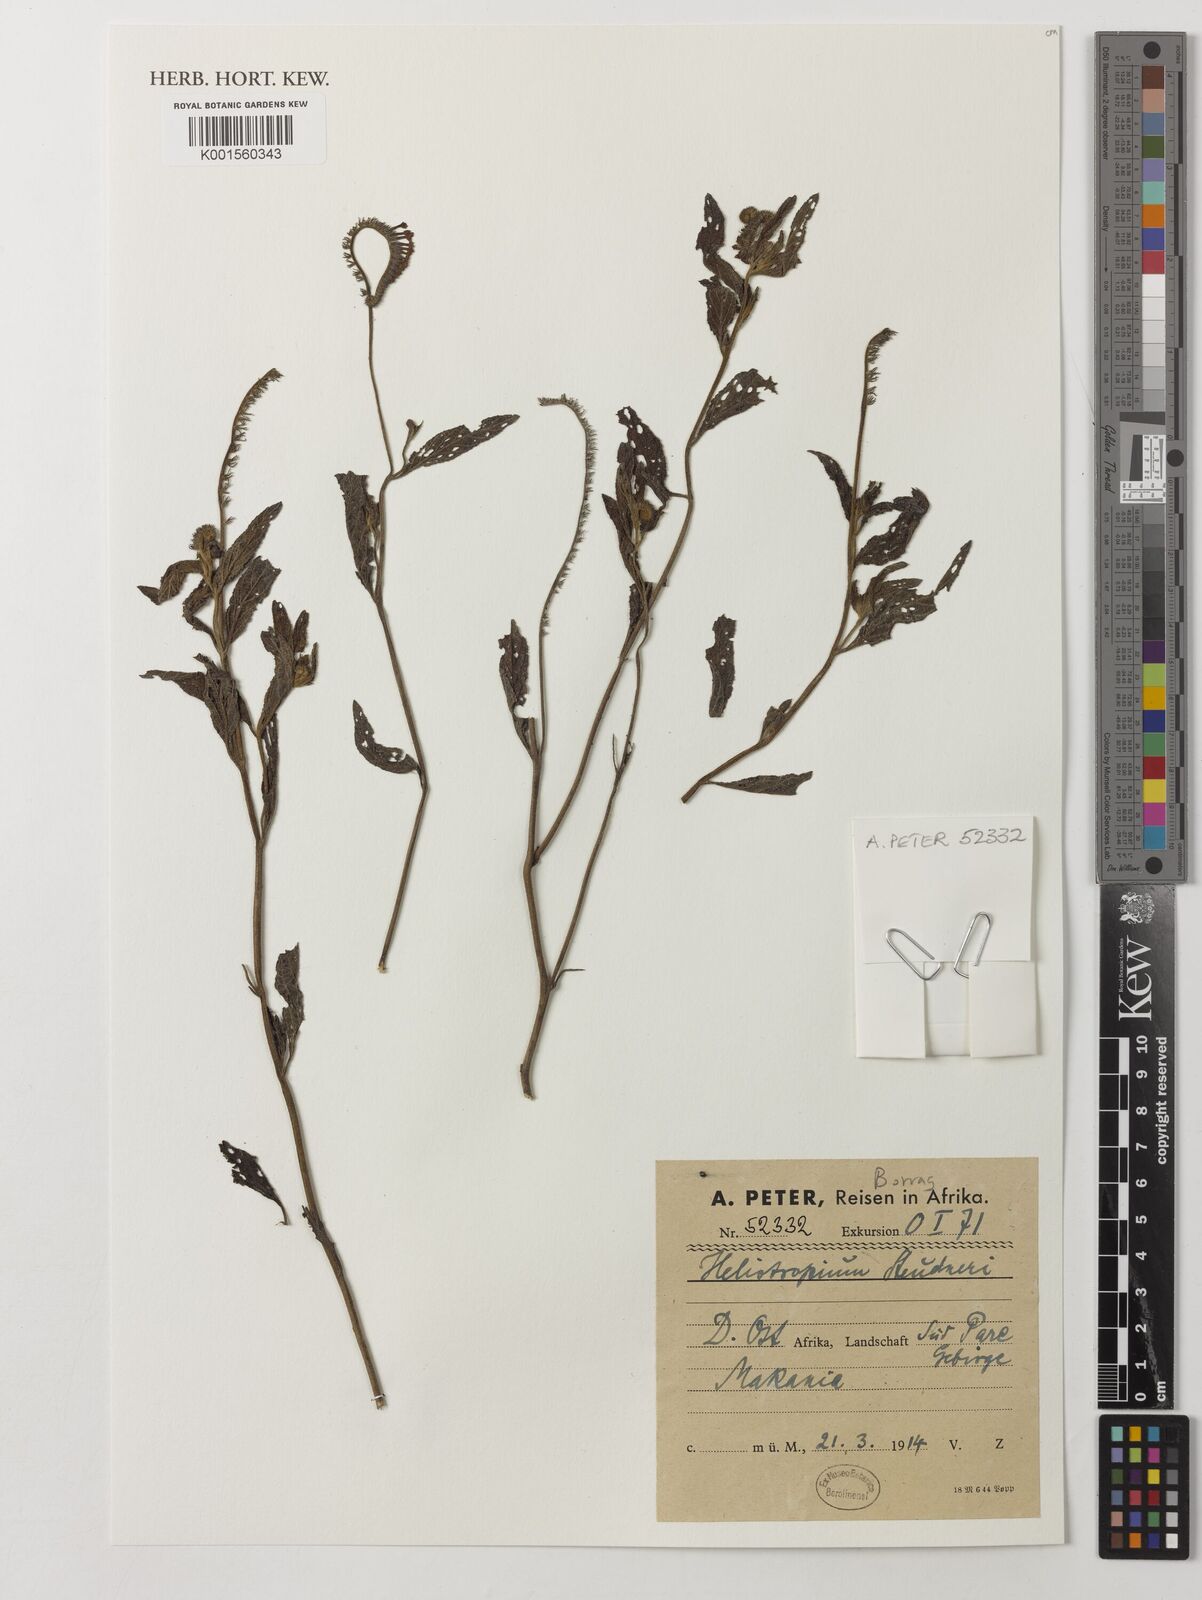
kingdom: Plantae
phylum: Tracheophyta
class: Magnoliopsida
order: Boraginales
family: Heliotropiaceae
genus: Heliotropium
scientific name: Heliotropium steudneri
